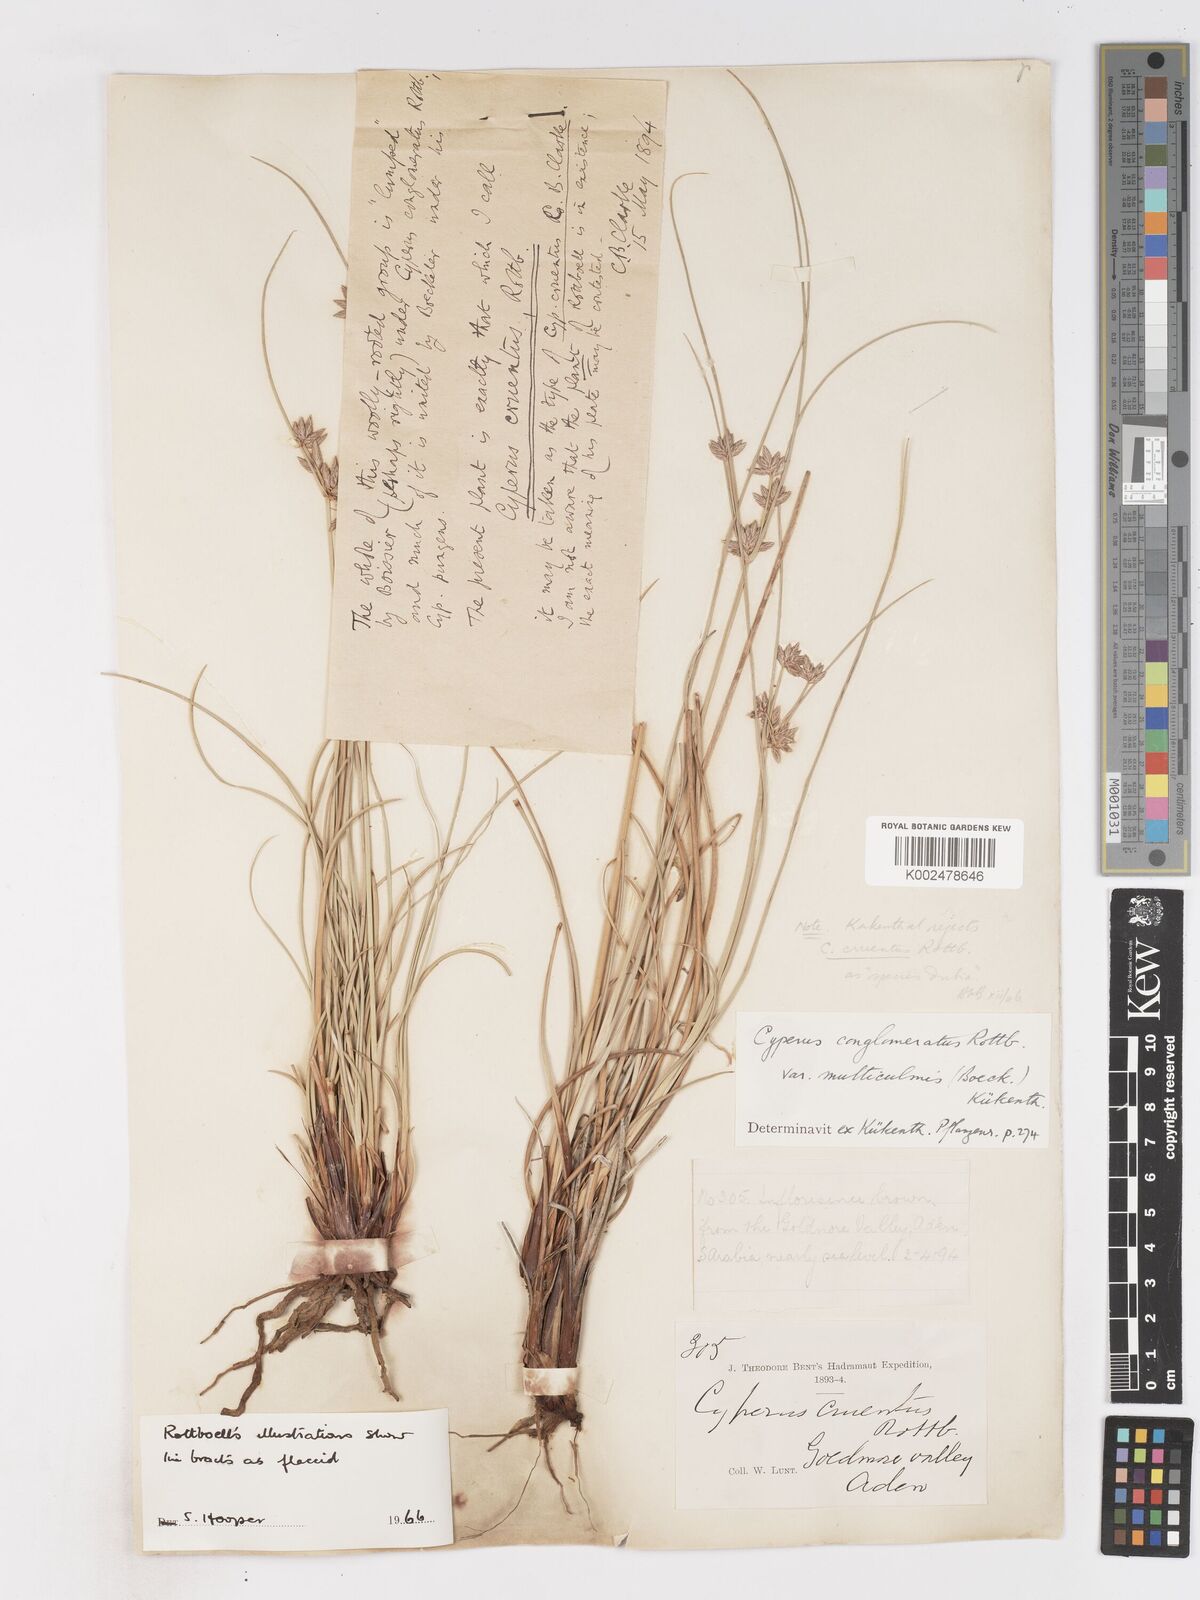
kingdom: Plantae
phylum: Tracheophyta
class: Liliopsida
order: Poales
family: Cyperaceae
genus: Cyperus
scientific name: Cyperus conglomeratus
